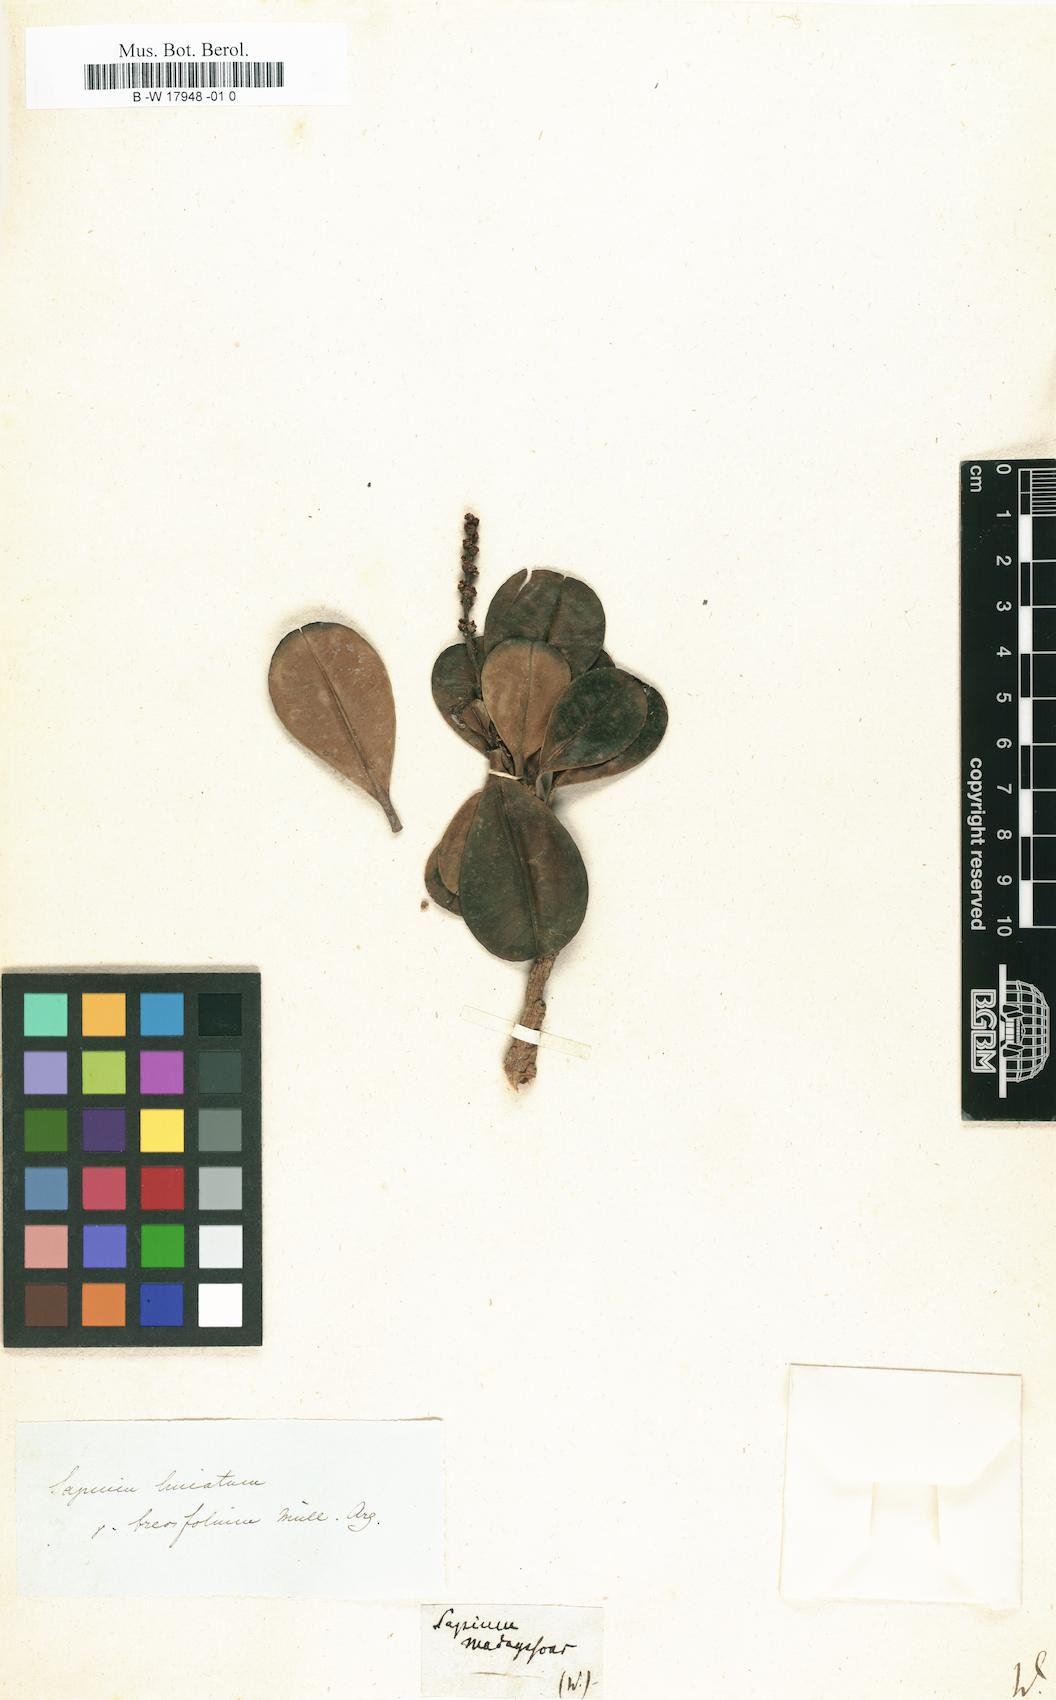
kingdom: Plantae
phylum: Tracheophyta
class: Magnoliopsida
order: Malpighiales
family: Euphorbiaceae
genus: Sapium
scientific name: Sapium
